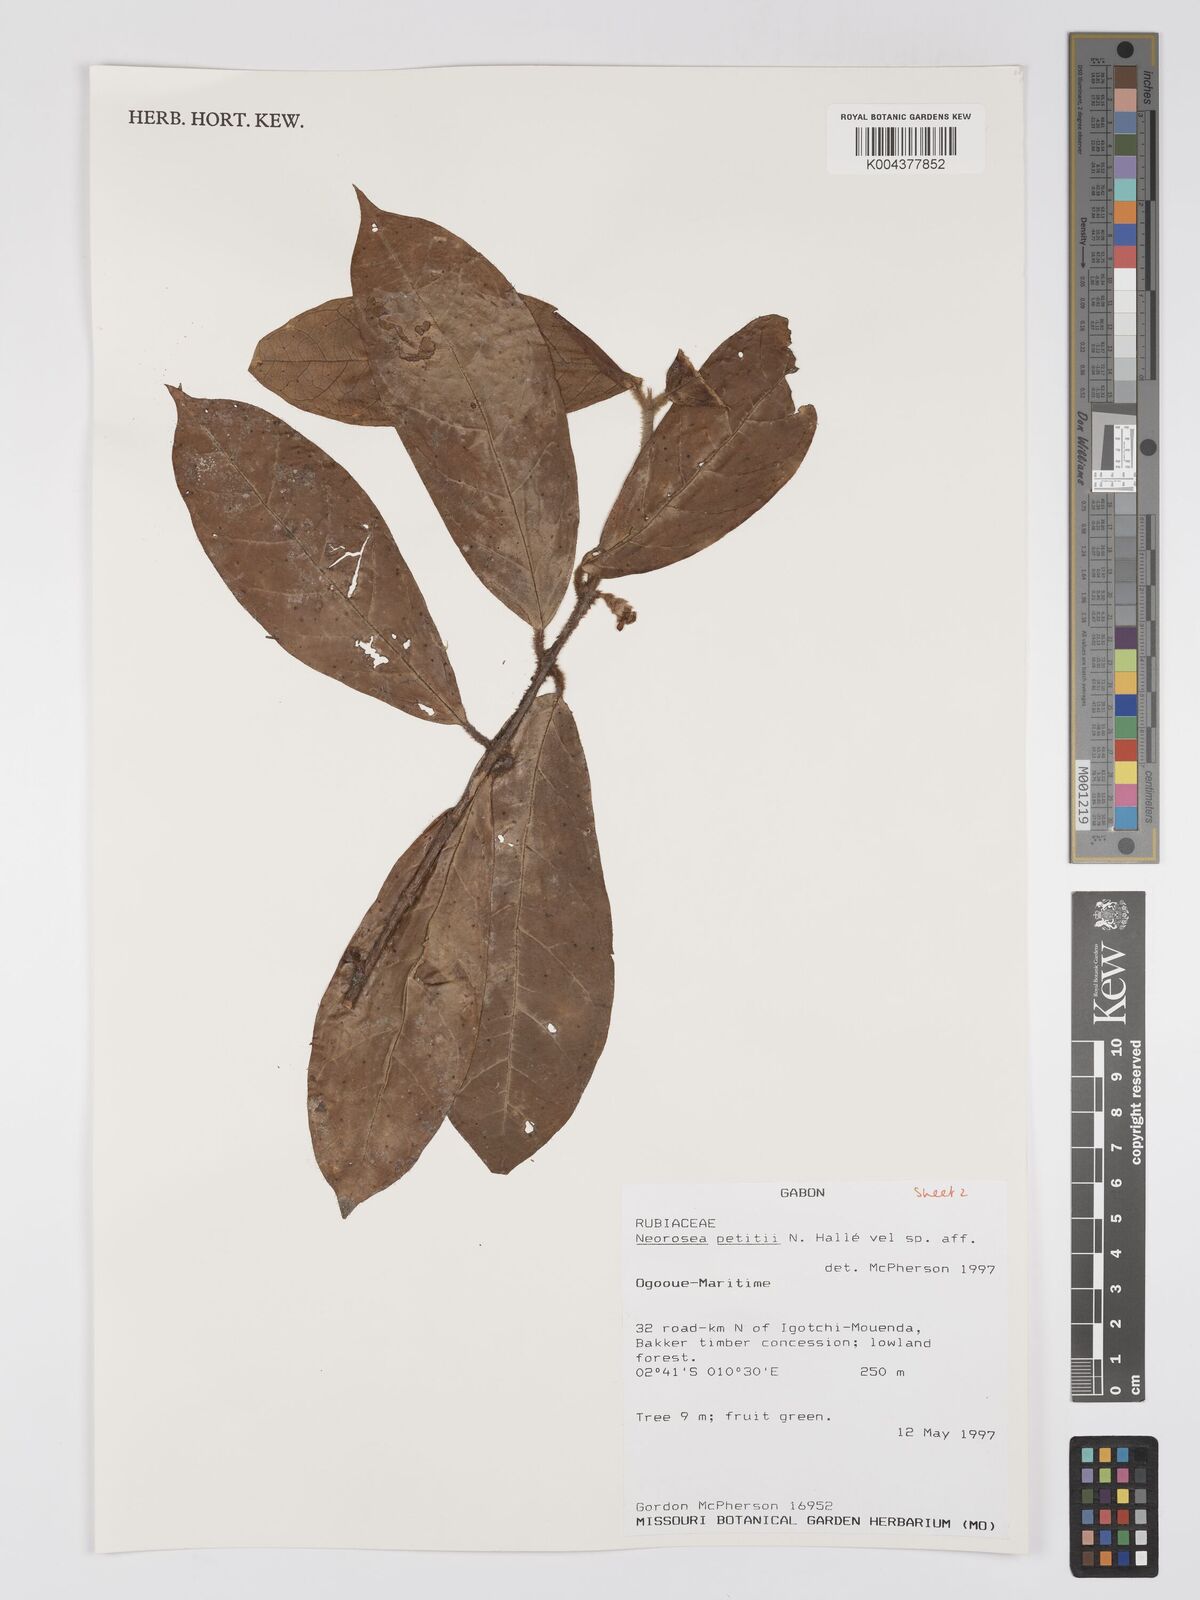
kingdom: Plantae
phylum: Tracheophyta
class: Magnoliopsida
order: Gentianales
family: Rubiaceae
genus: Sericanthe
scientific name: Sericanthe petitii
